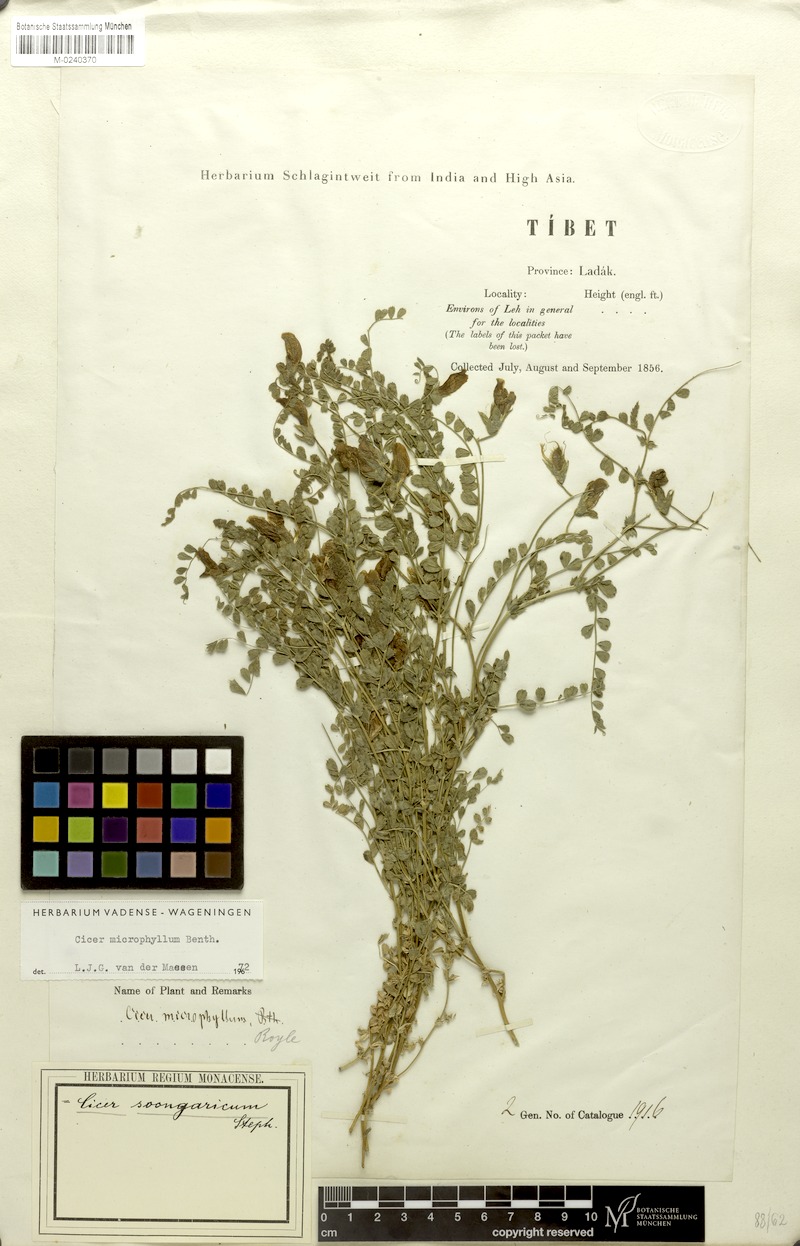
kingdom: Plantae
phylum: Tracheophyta
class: Magnoliopsida
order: Fabales
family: Fabaceae
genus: Cicer
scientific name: Cicer microphyllum
